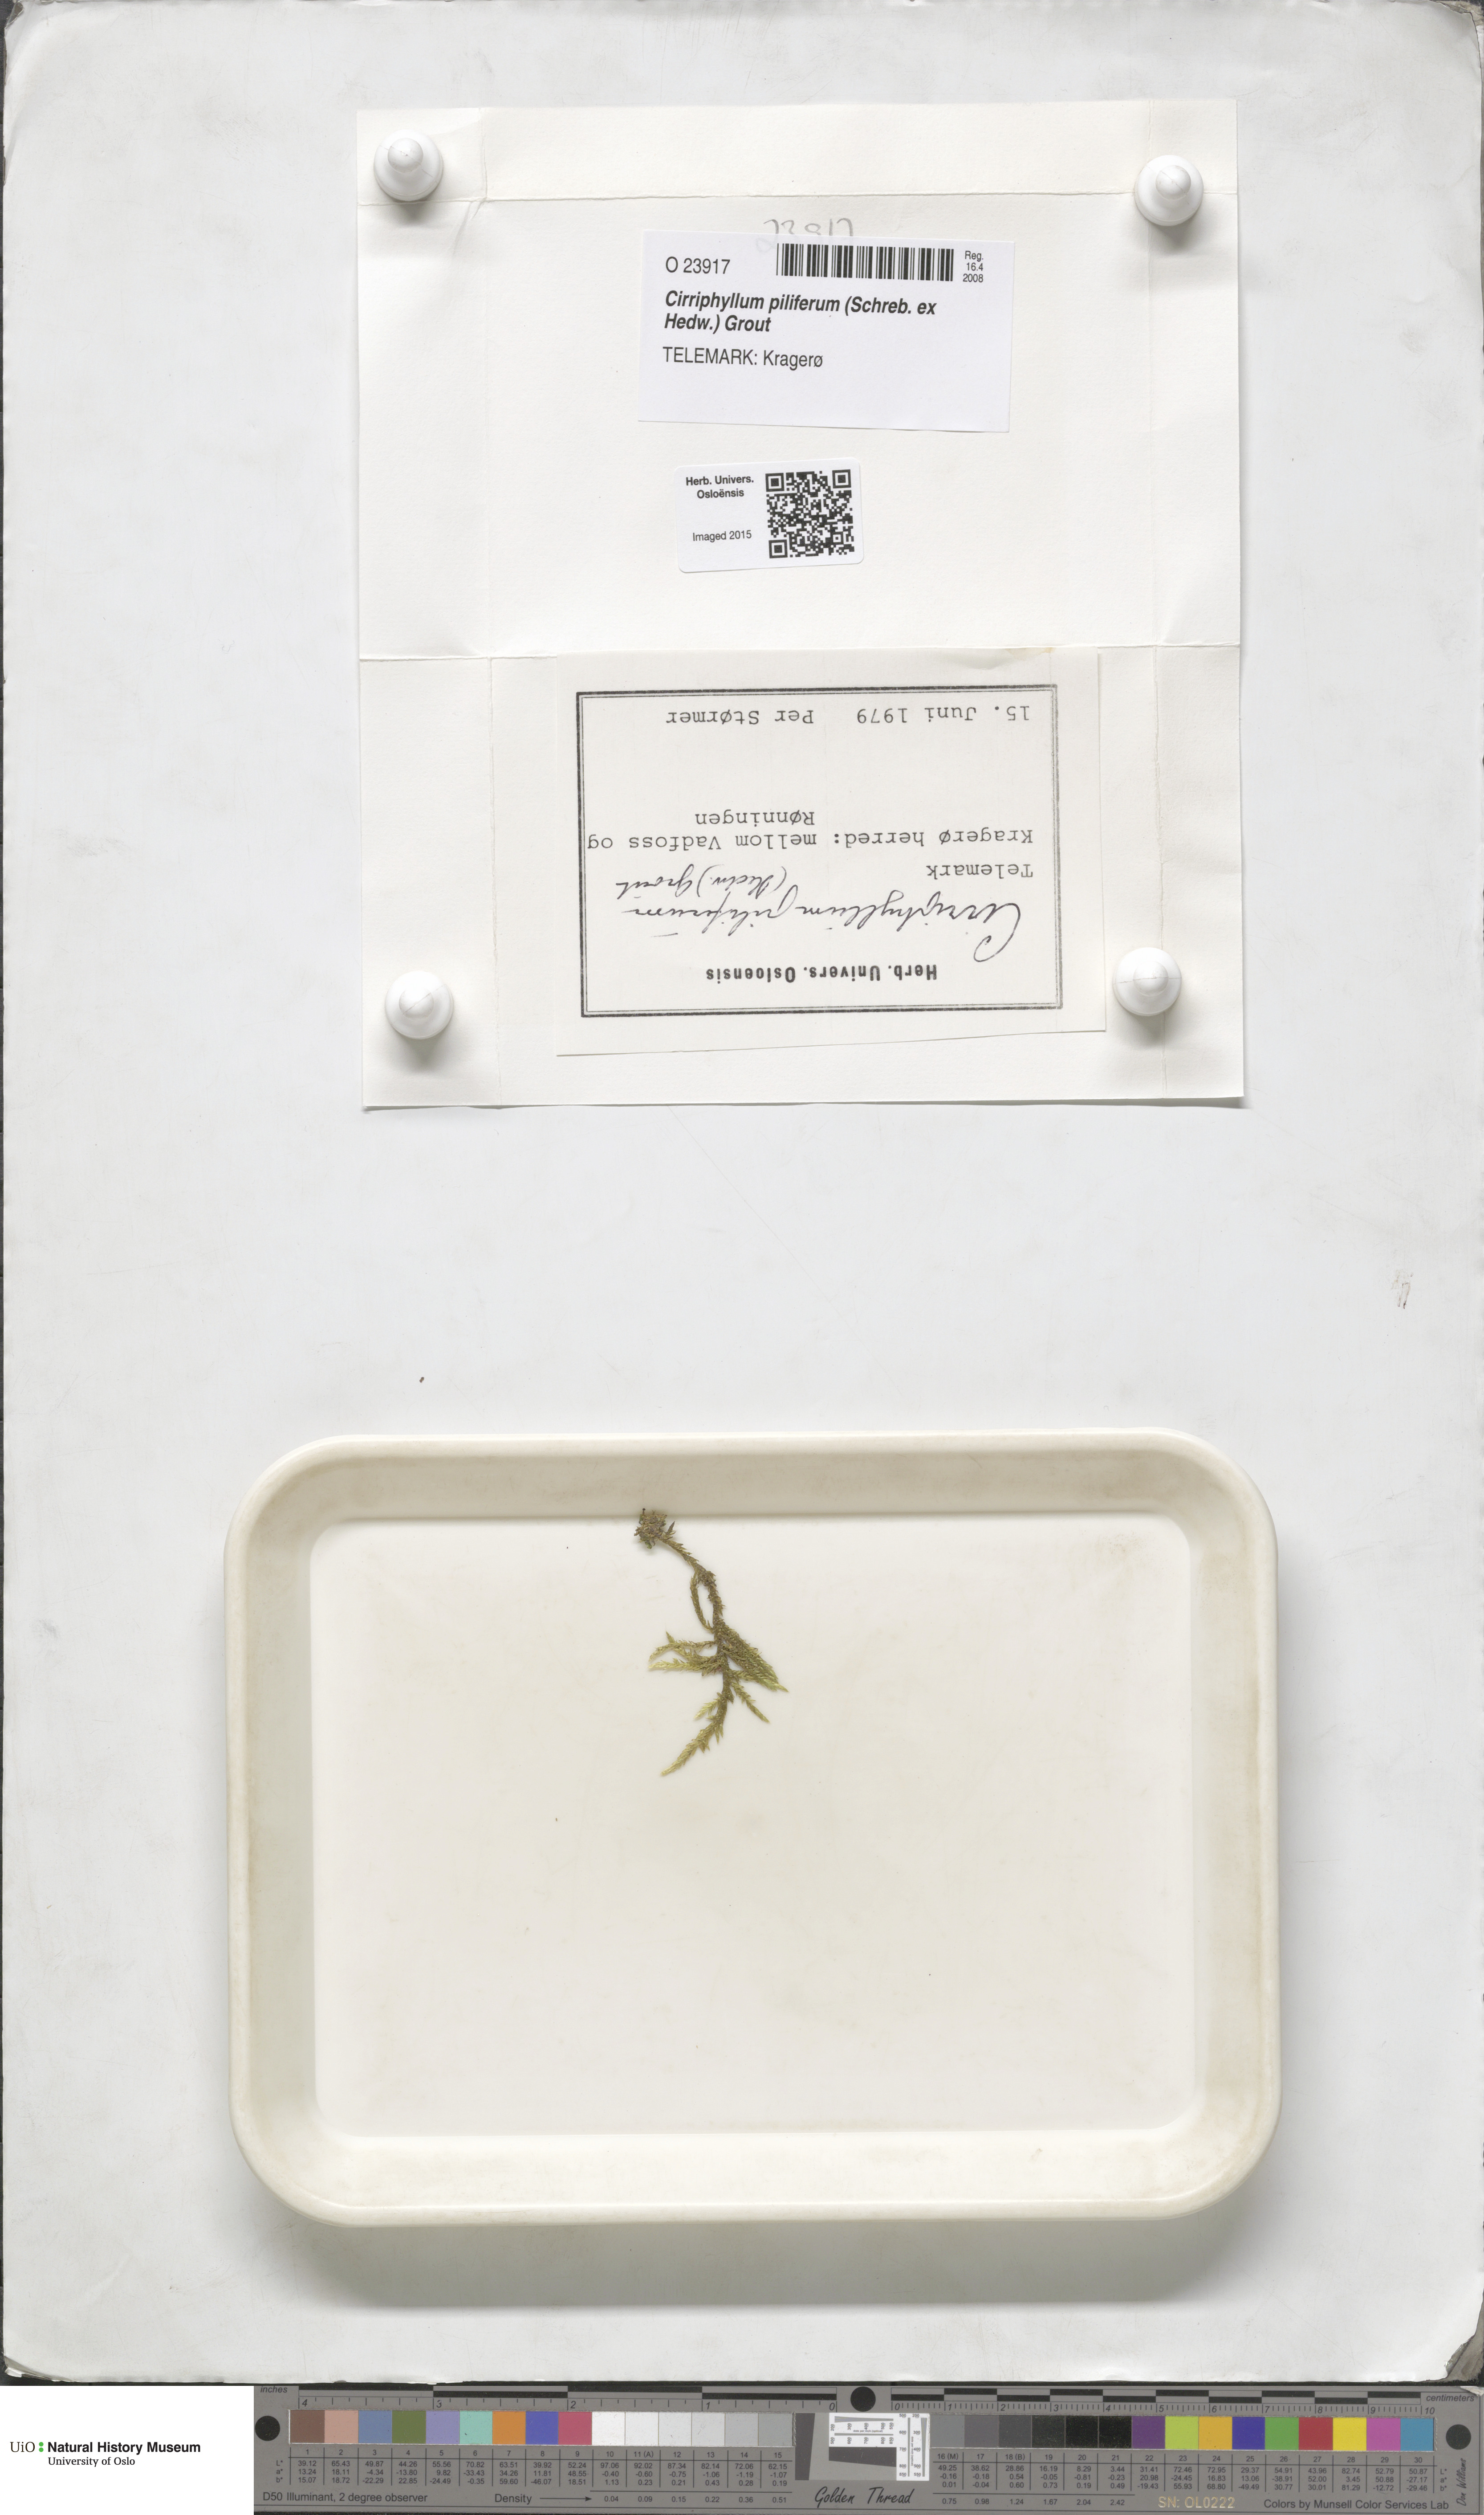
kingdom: Plantae
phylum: Bryophyta
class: Bryopsida
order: Hypnales
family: Brachytheciaceae
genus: Cirriphyllum
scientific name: Cirriphyllum piliferum
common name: Hair-pointed moss
